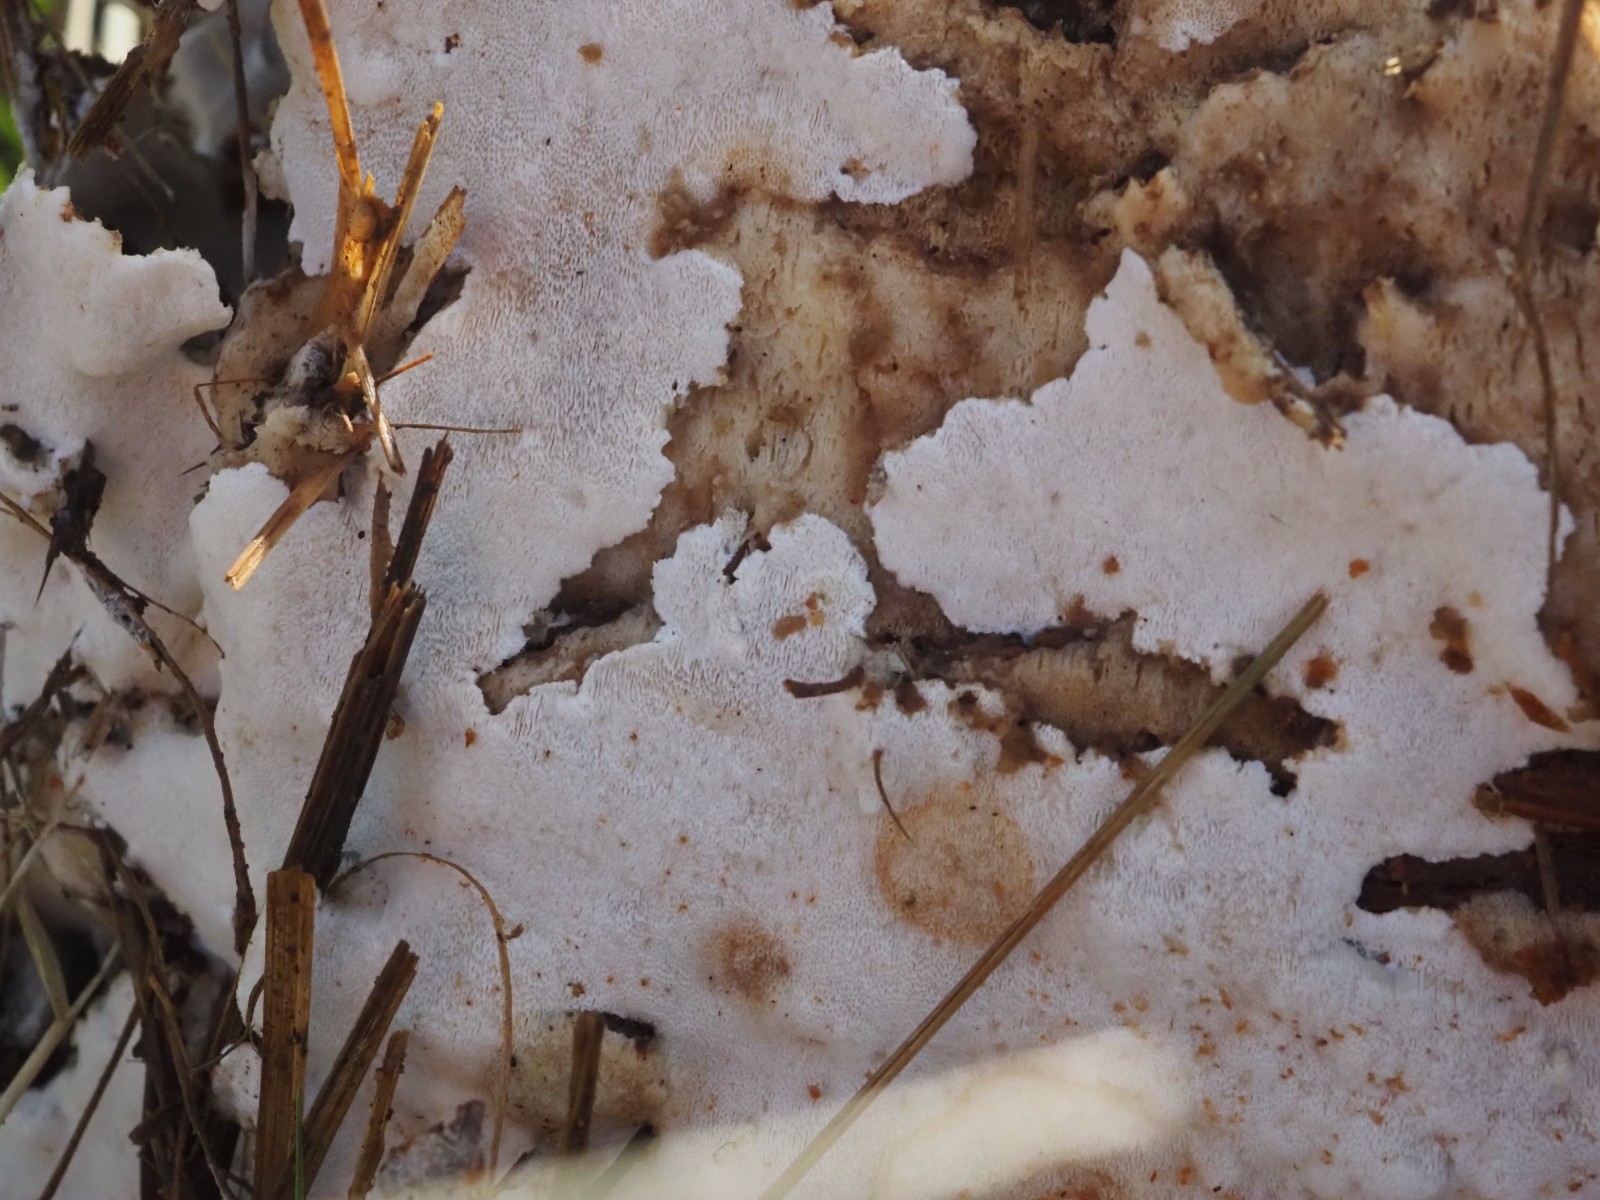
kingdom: Fungi
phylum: Basidiomycota
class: Agaricomycetes
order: Polyporales
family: Gelatoporiaceae
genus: Cinereomyces
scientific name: Cinereomyces lindbladii
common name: almindelig gråporesvamp
